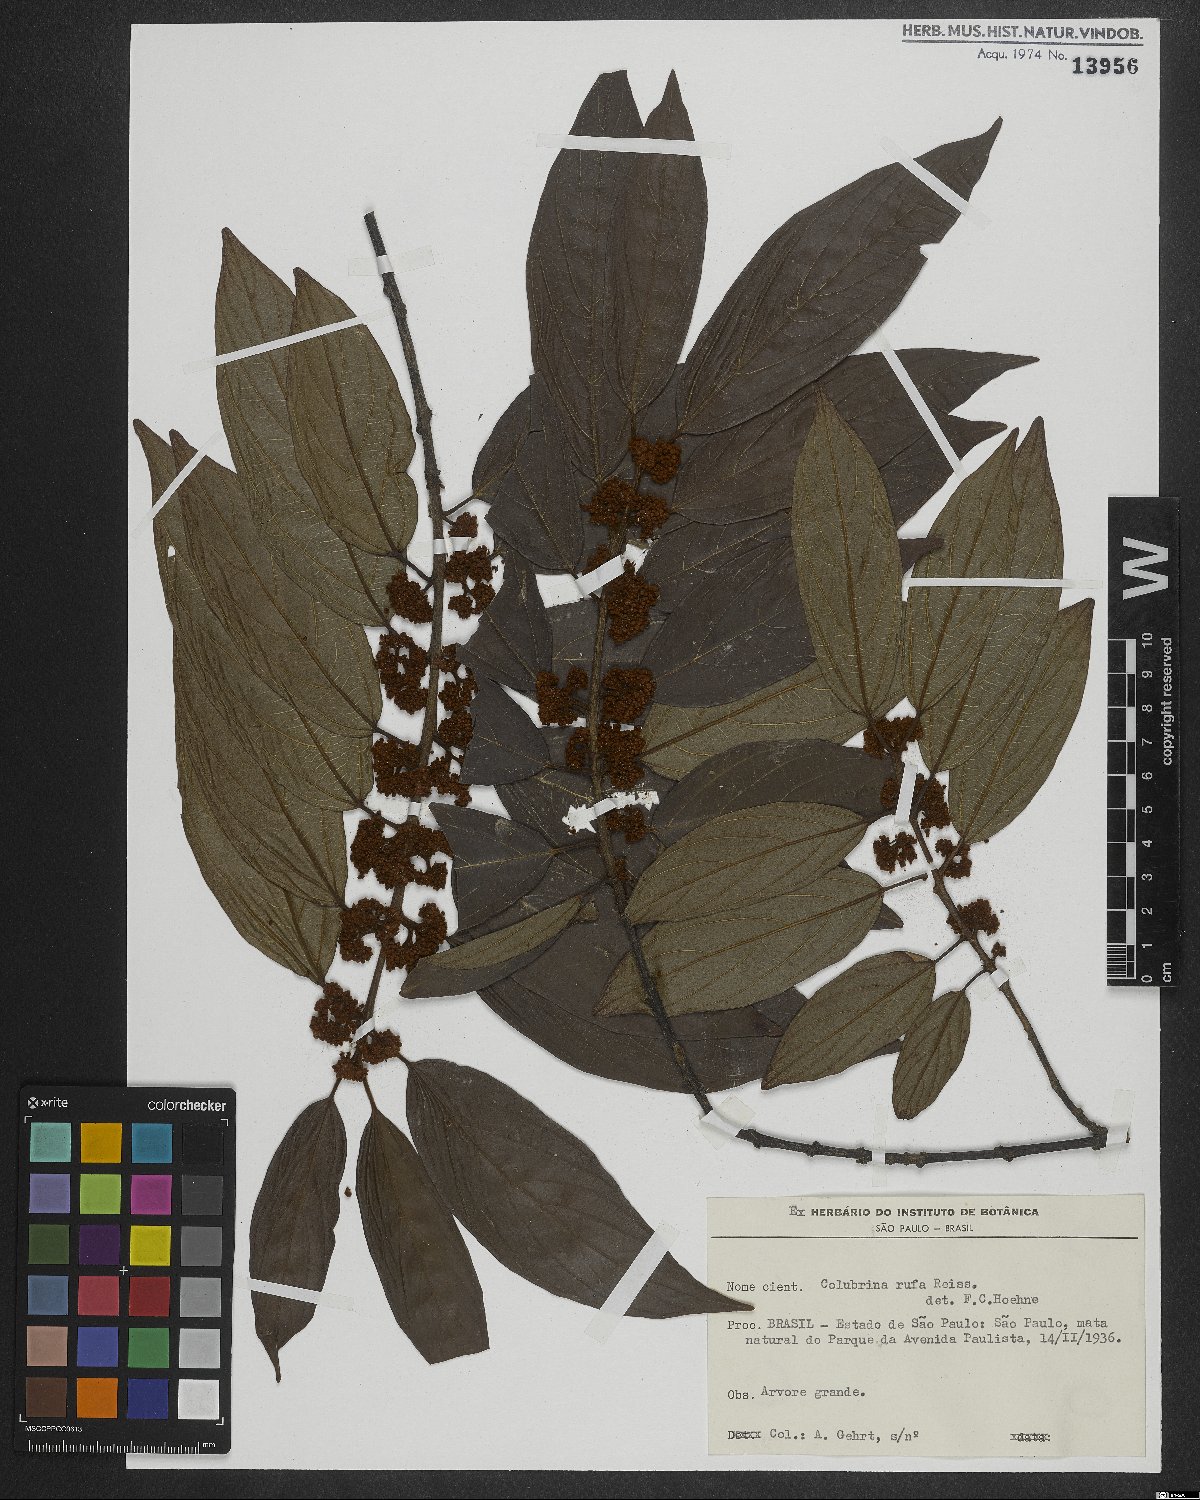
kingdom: Plantae
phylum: Tracheophyta
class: Magnoliopsida
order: Gentianales
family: Loganiaceae
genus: Strychnos
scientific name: Strychnos parvifolia
